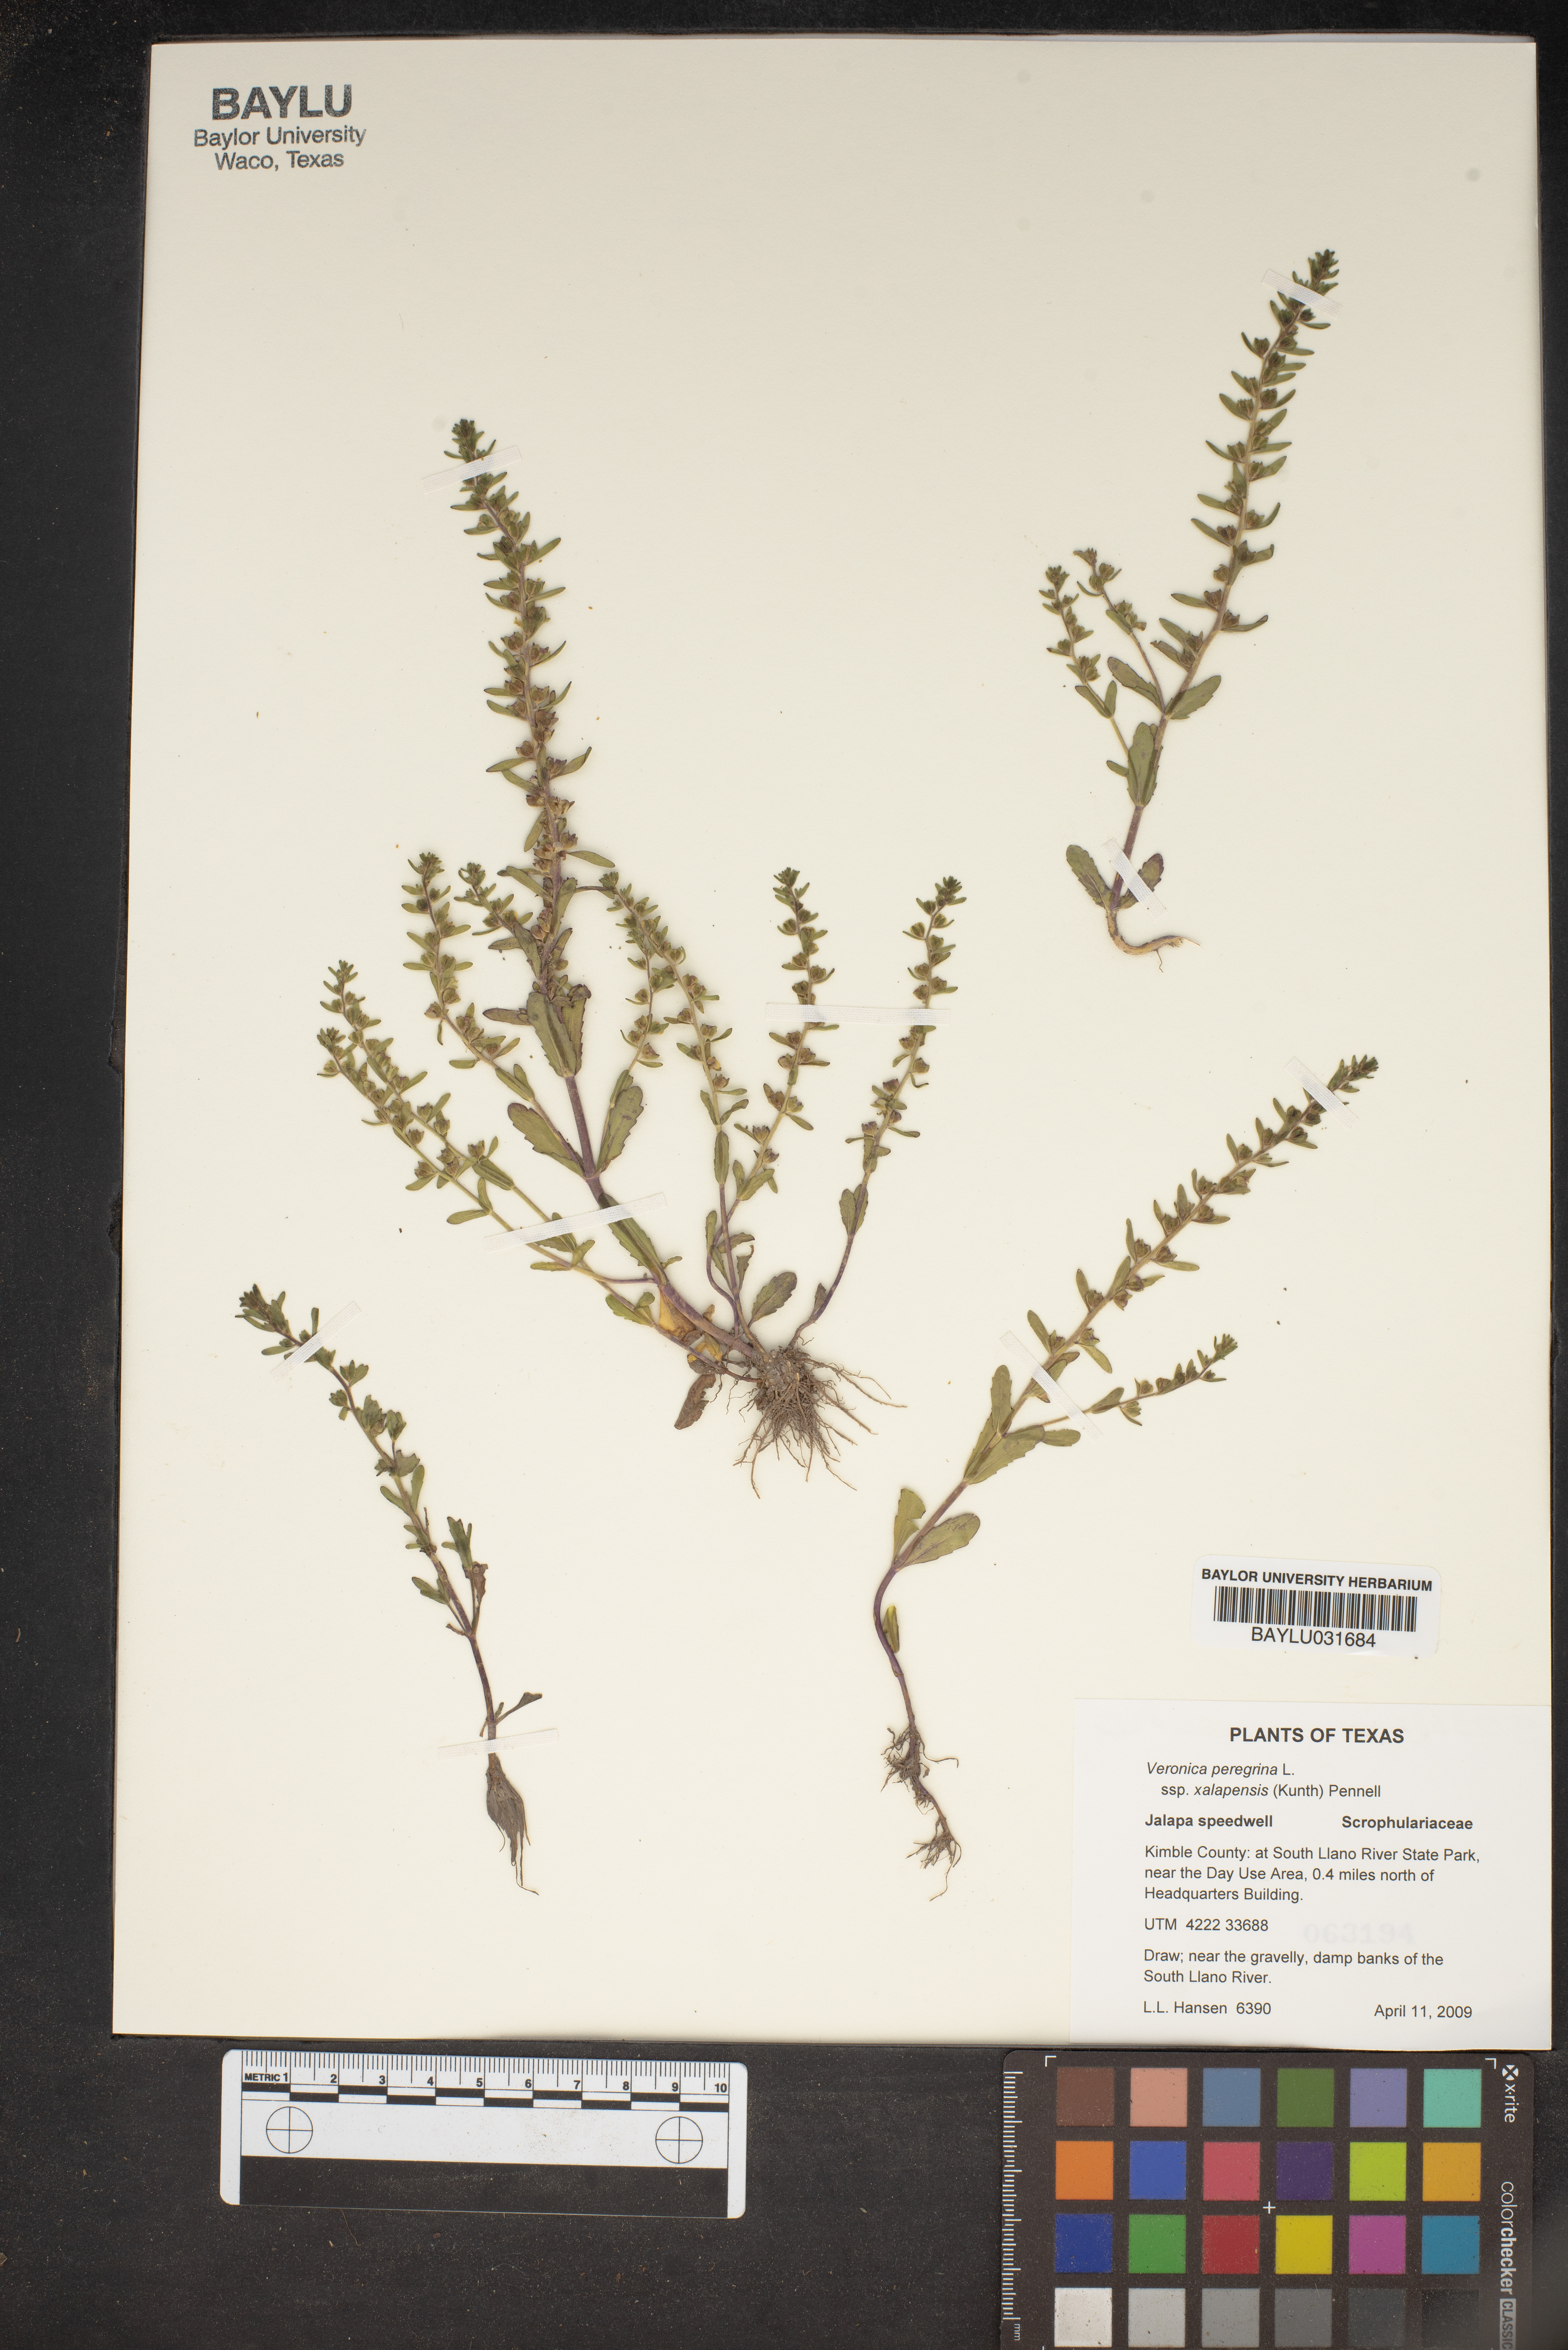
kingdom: Plantae
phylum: Tracheophyta
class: Magnoliopsida
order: Lamiales
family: Plantaginaceae
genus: Veronica
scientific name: Veronica peregrina
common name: Neckweed
